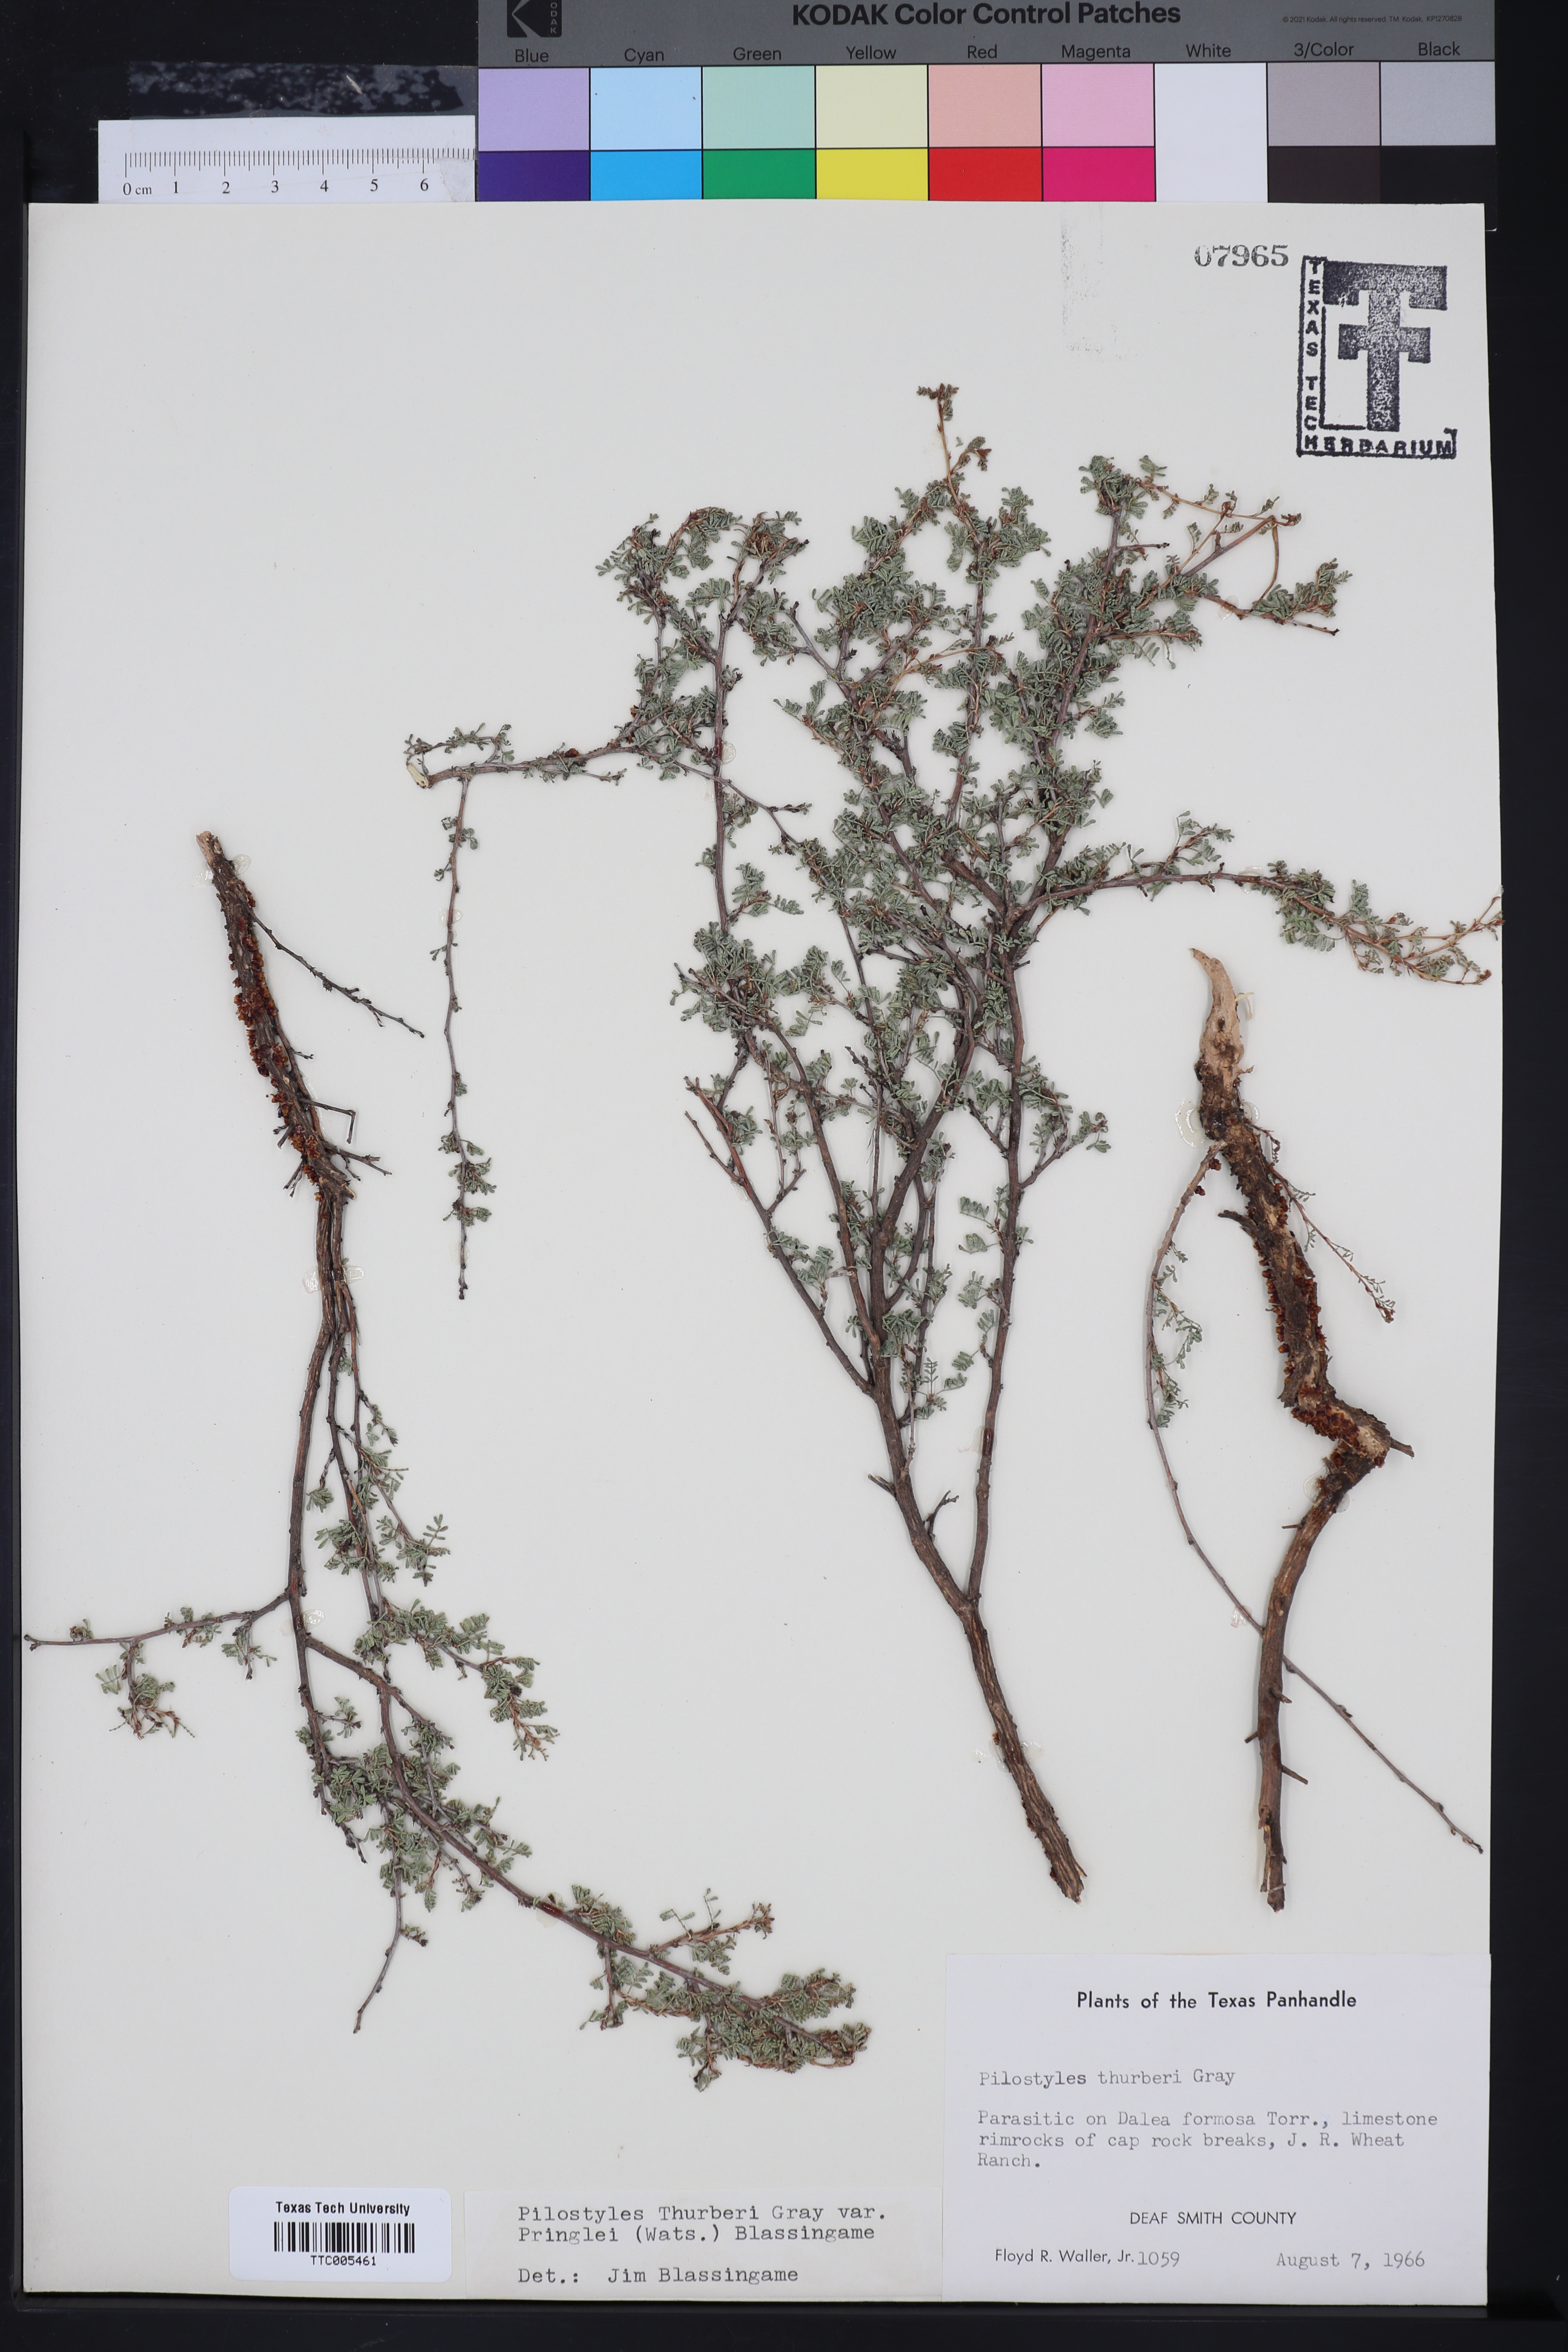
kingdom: Plantae
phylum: Tracheophyta
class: Magnoliopsida
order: Cucurbitales
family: Apodanthaceae
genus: Pilostyles
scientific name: Pilostyles thurberi
